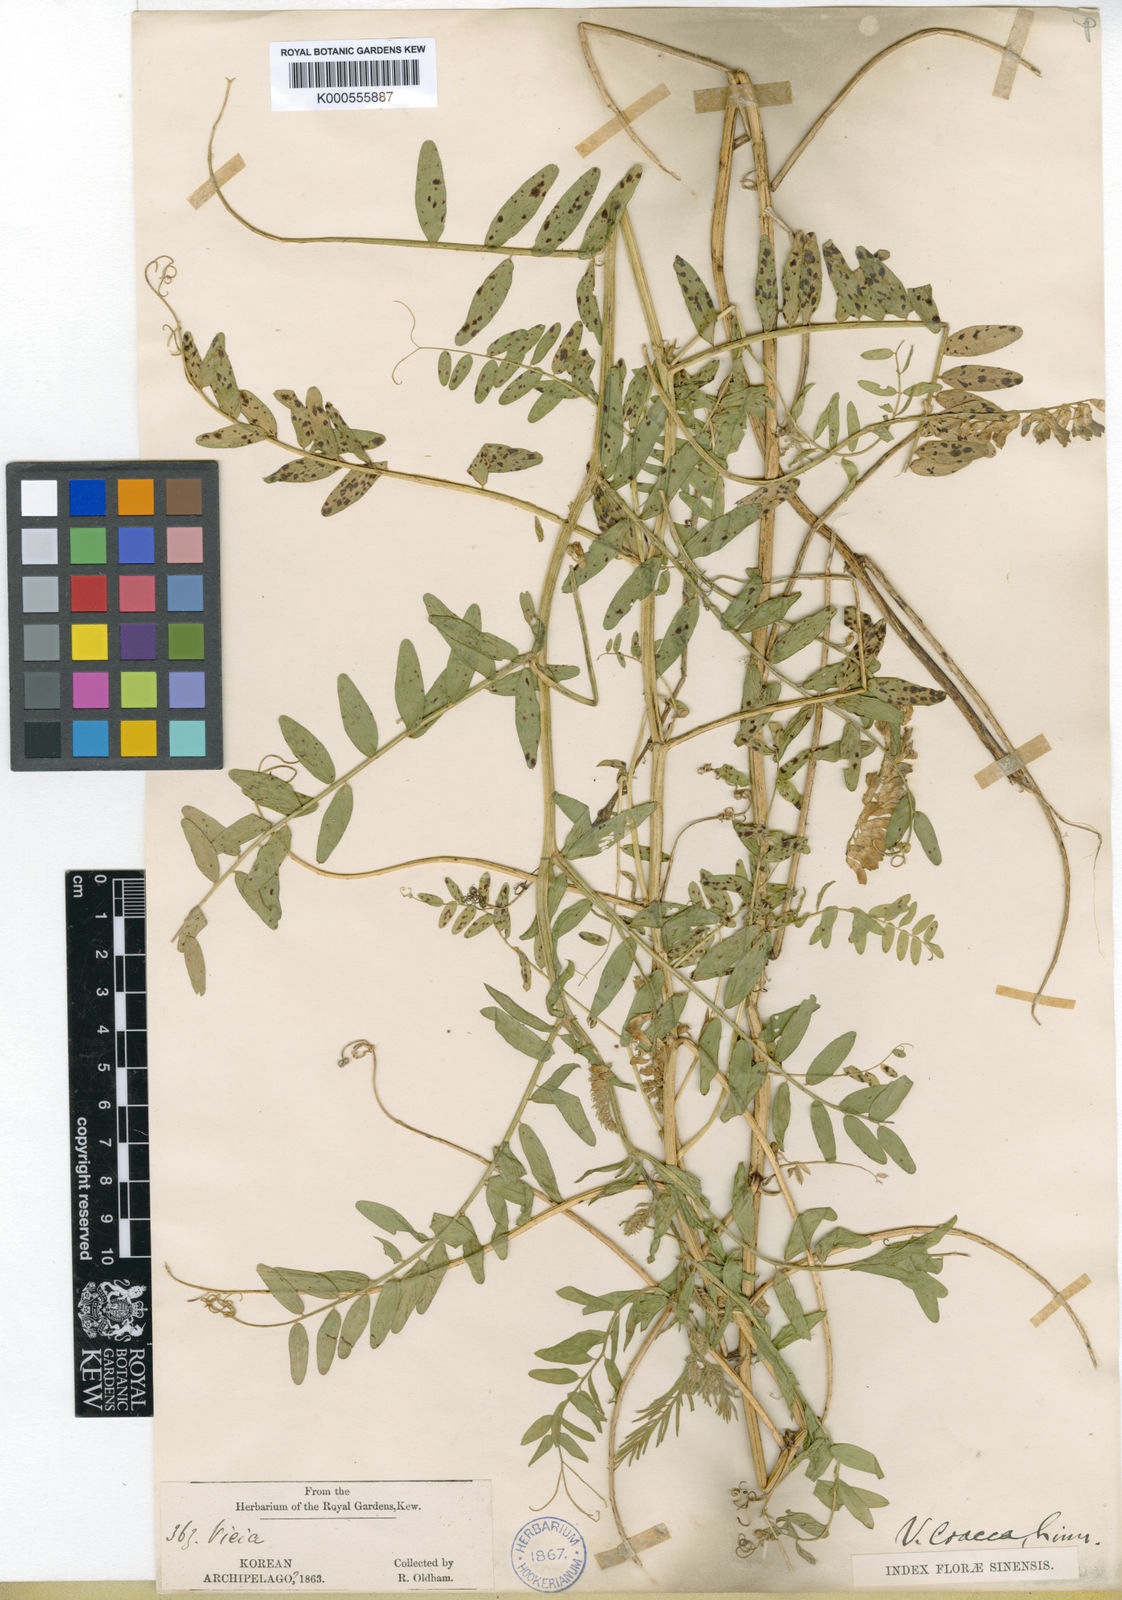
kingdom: Plantae
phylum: Tracheophyta
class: Magnoliopsida
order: Fabales
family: Fabaceae
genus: Vicia
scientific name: Vicia cracca
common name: Bird vetch
